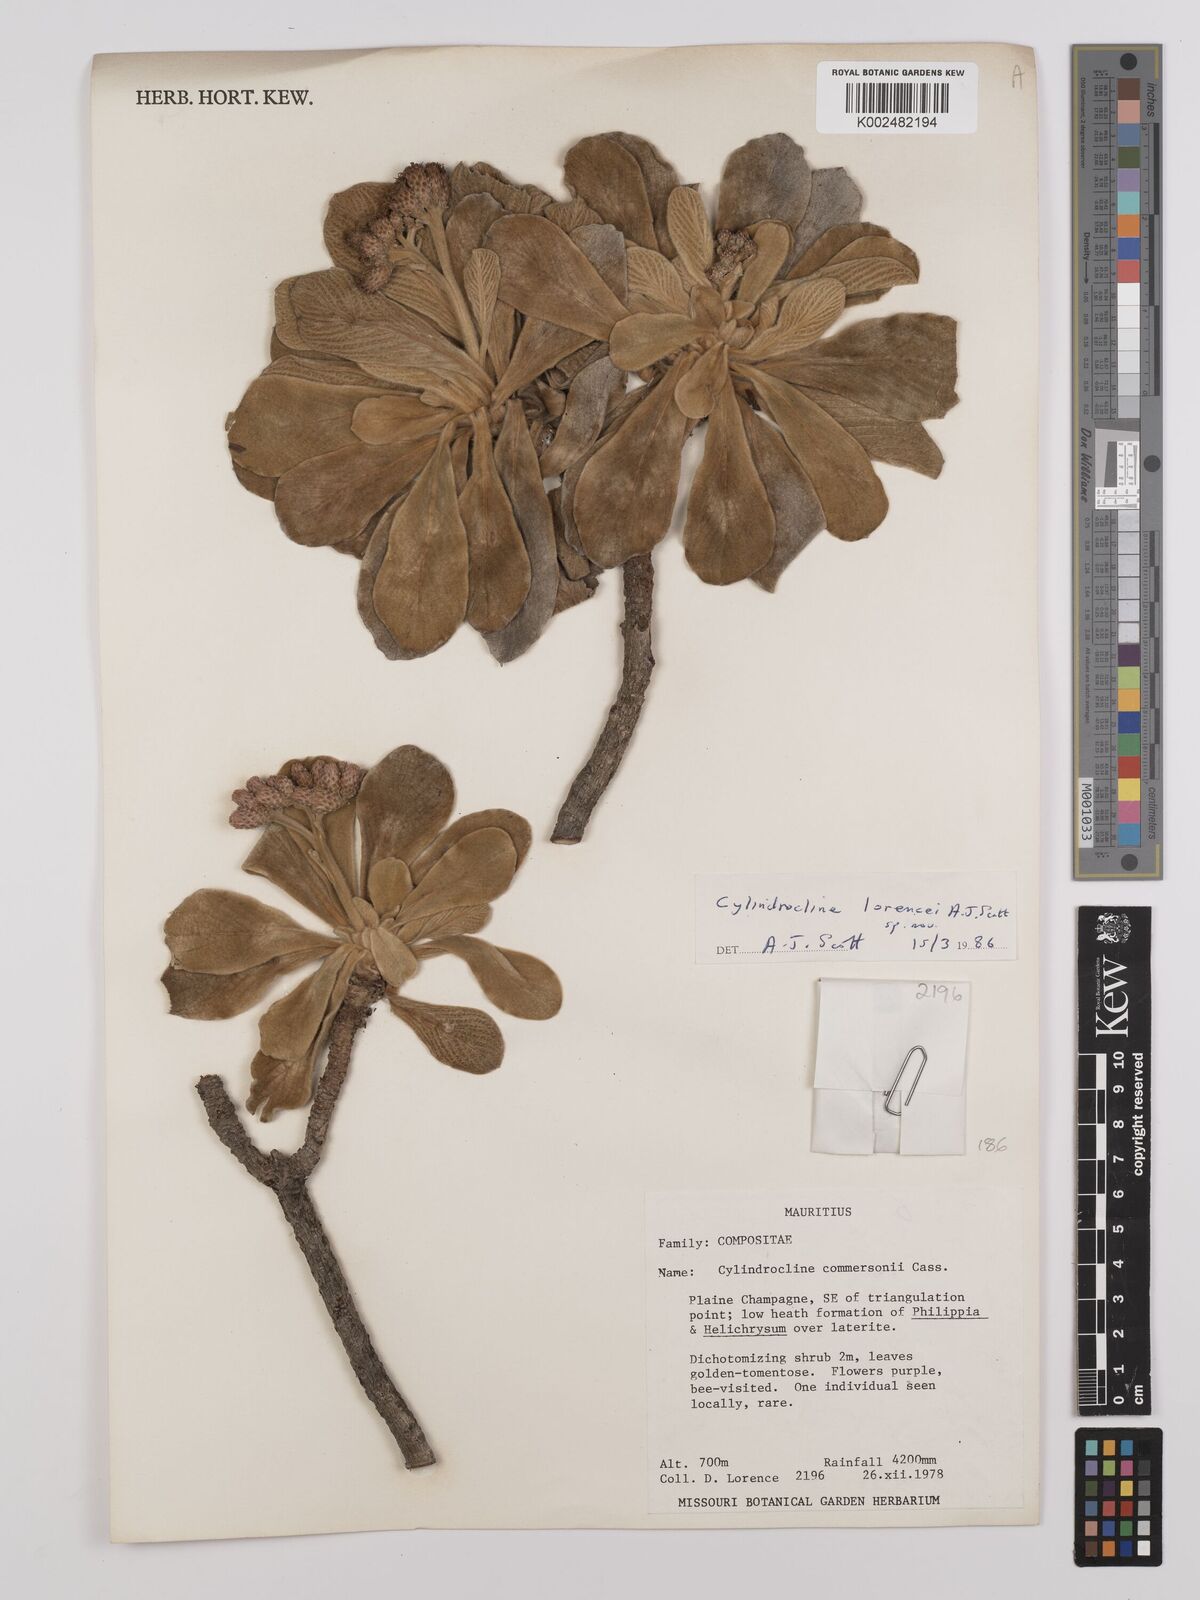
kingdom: Plantae
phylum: Tracheophyta
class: Magnoliopsida
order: Asterales
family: Asteraceae
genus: Cylindrocline
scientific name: Cylindrocline lorencei
